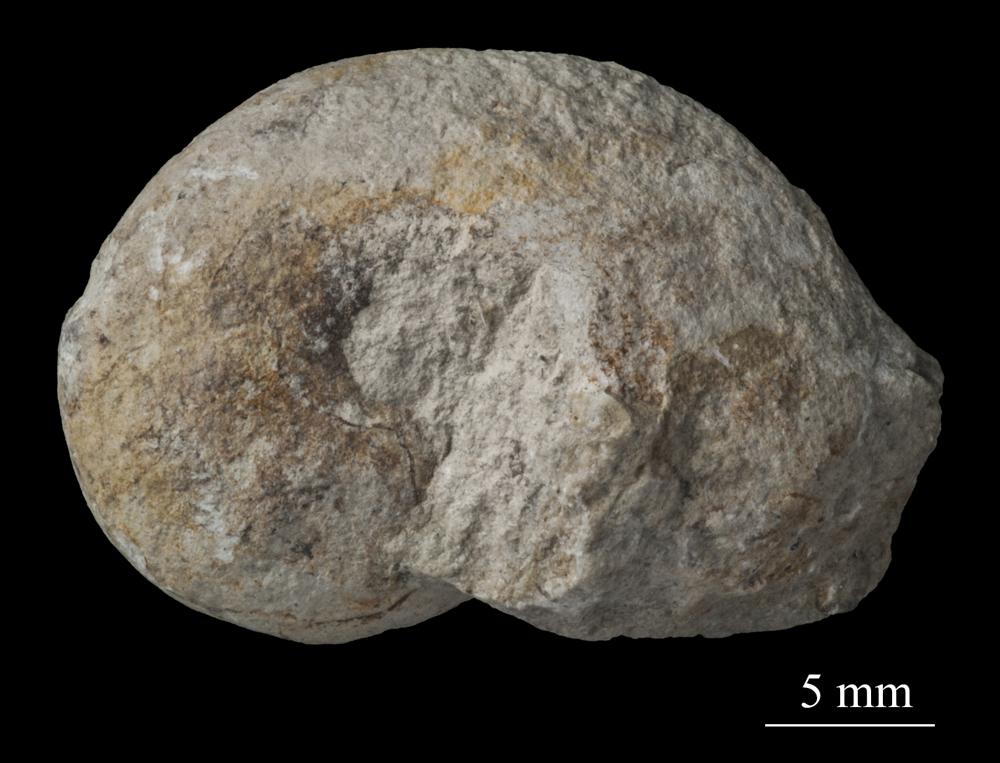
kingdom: Animalia
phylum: Mollusca
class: Gastropoda
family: Bellerophontidae
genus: Bellerophon
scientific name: Bellerophon
